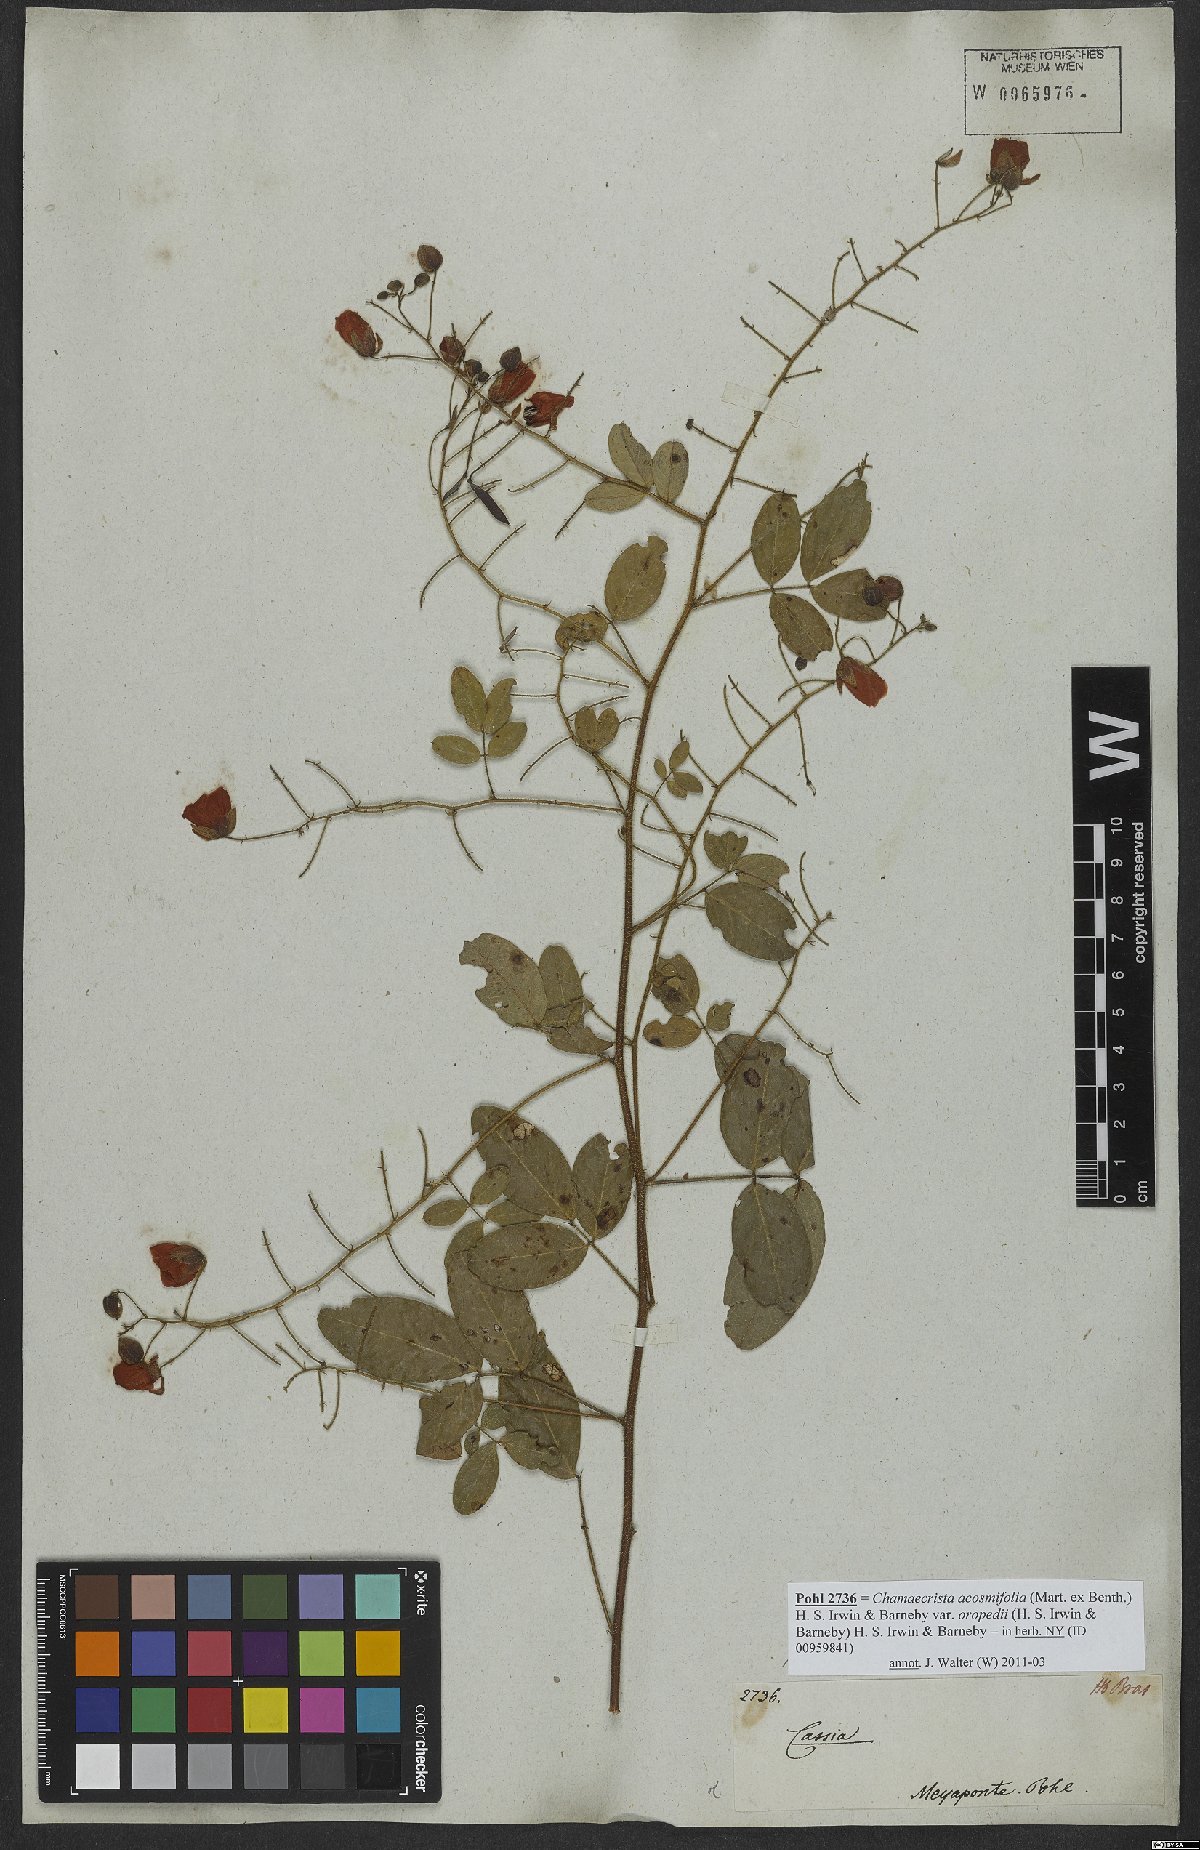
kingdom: Plantae
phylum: Tracheophyta
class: Magnoliopsida
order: Fabales
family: Fabaceae
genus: Chamaecrista
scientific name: Chamaecrista hispidula
